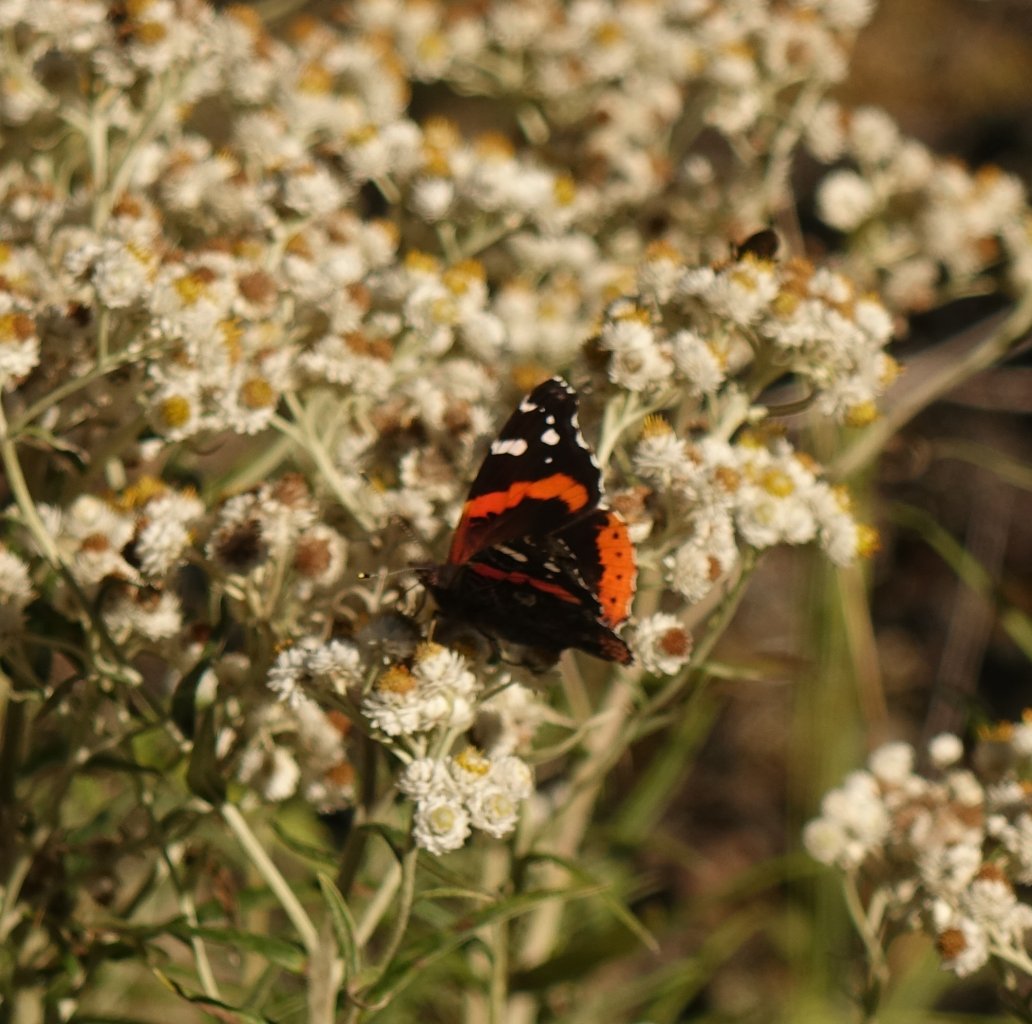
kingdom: Animalia
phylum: Arthropoda
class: Insecta
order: Lepidoptera
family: Nymphalidae
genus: Vanessa
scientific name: Vanessa atalanta
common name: Red Admiral
